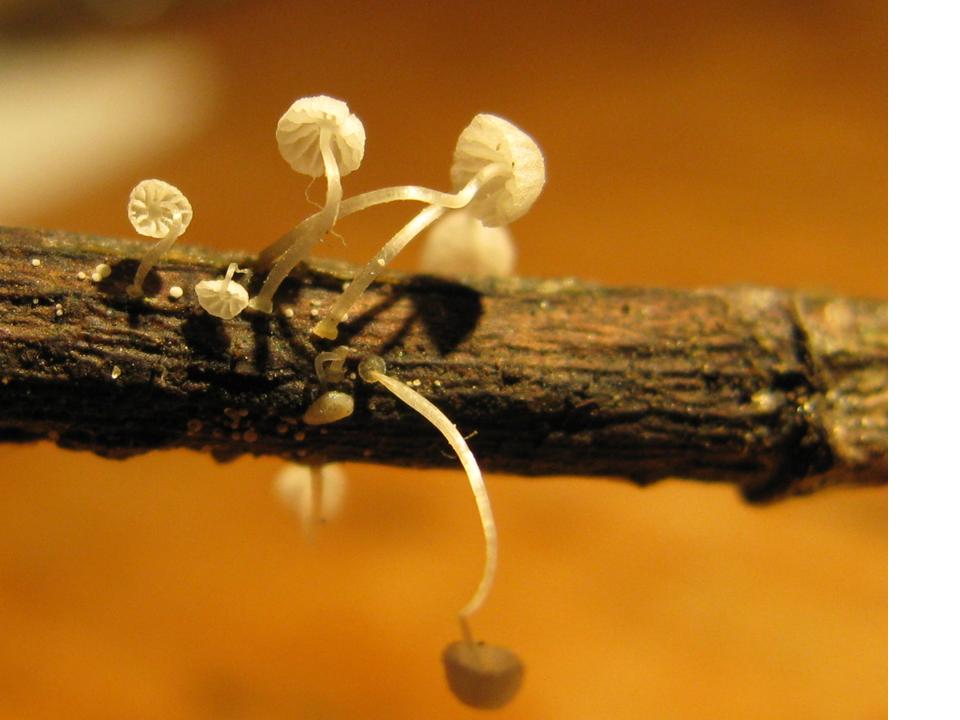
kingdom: Fungi
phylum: Basidiomycota
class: Agaricomycetes
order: Agaricales
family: Mycenaceae
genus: Mycena
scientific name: Mycena tenerrima
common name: pudret huesvamp
